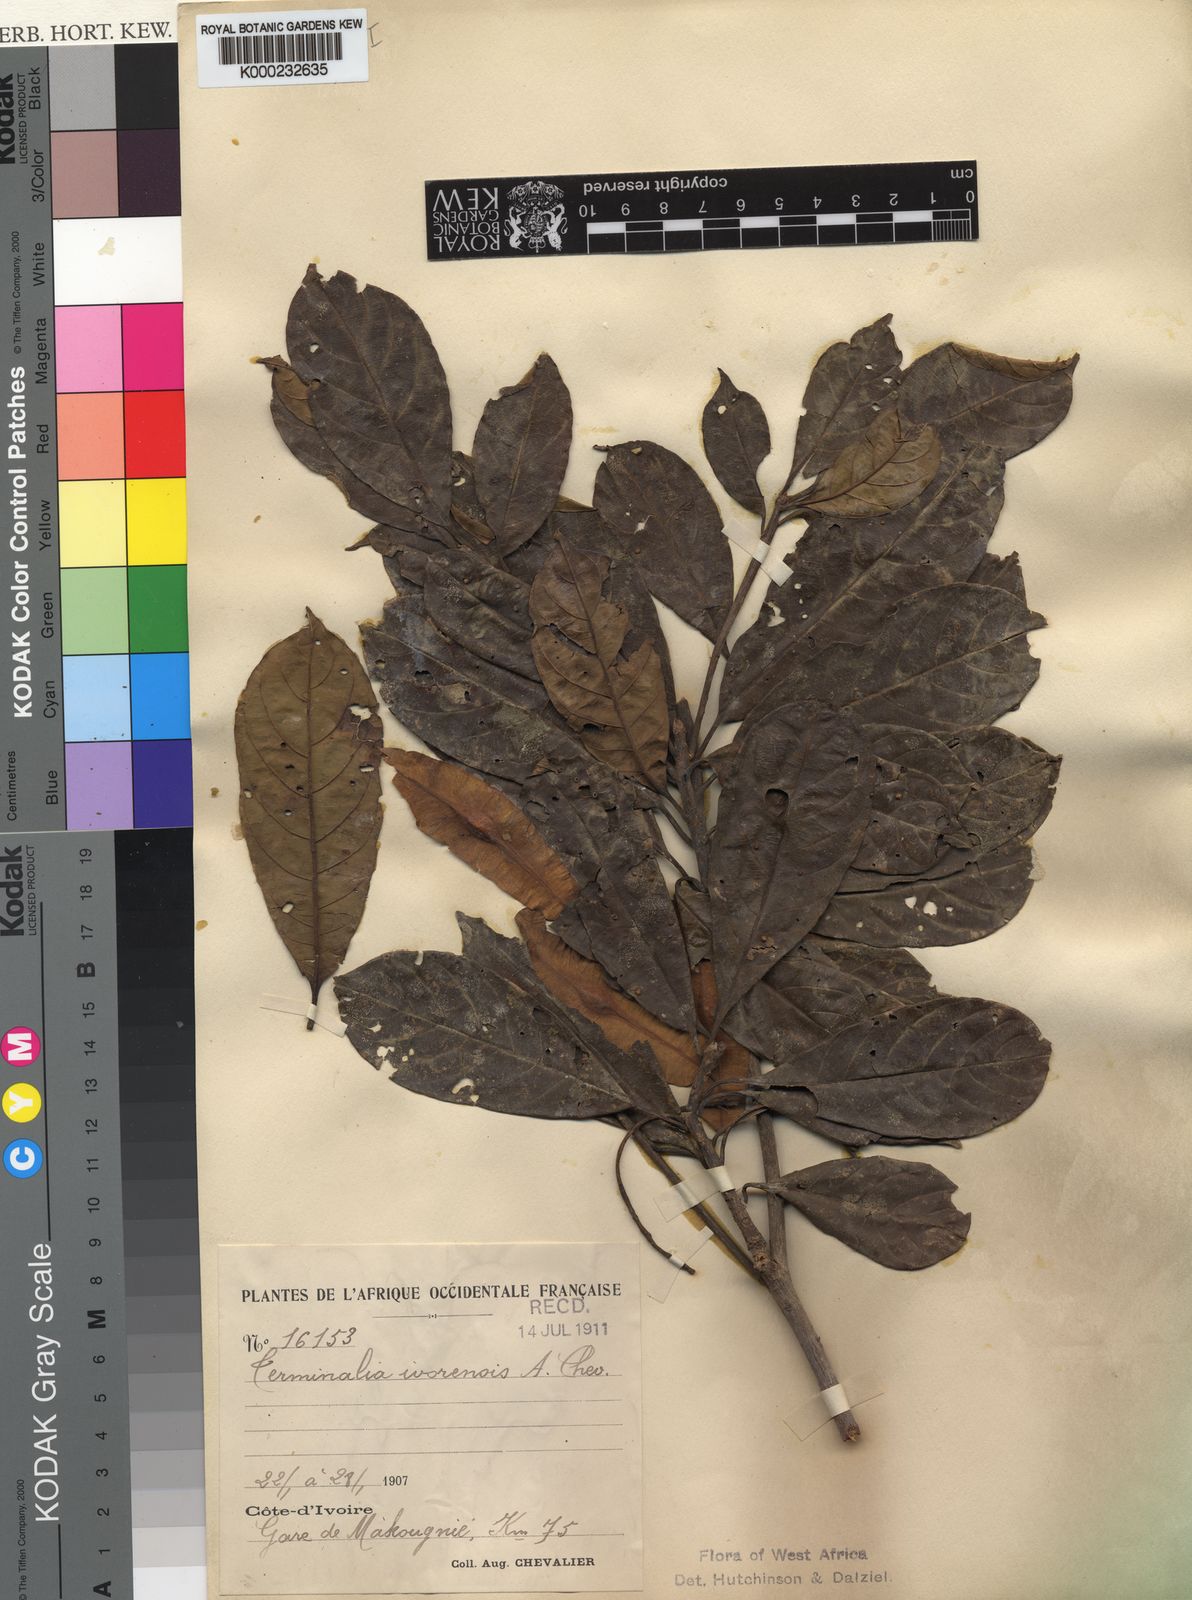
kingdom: Plantae
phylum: Tracheophyta
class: Magnoliopsida
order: Myrtales
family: Combretaceae
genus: Terminalia
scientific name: Terminalia ivorensis
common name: Black afara
